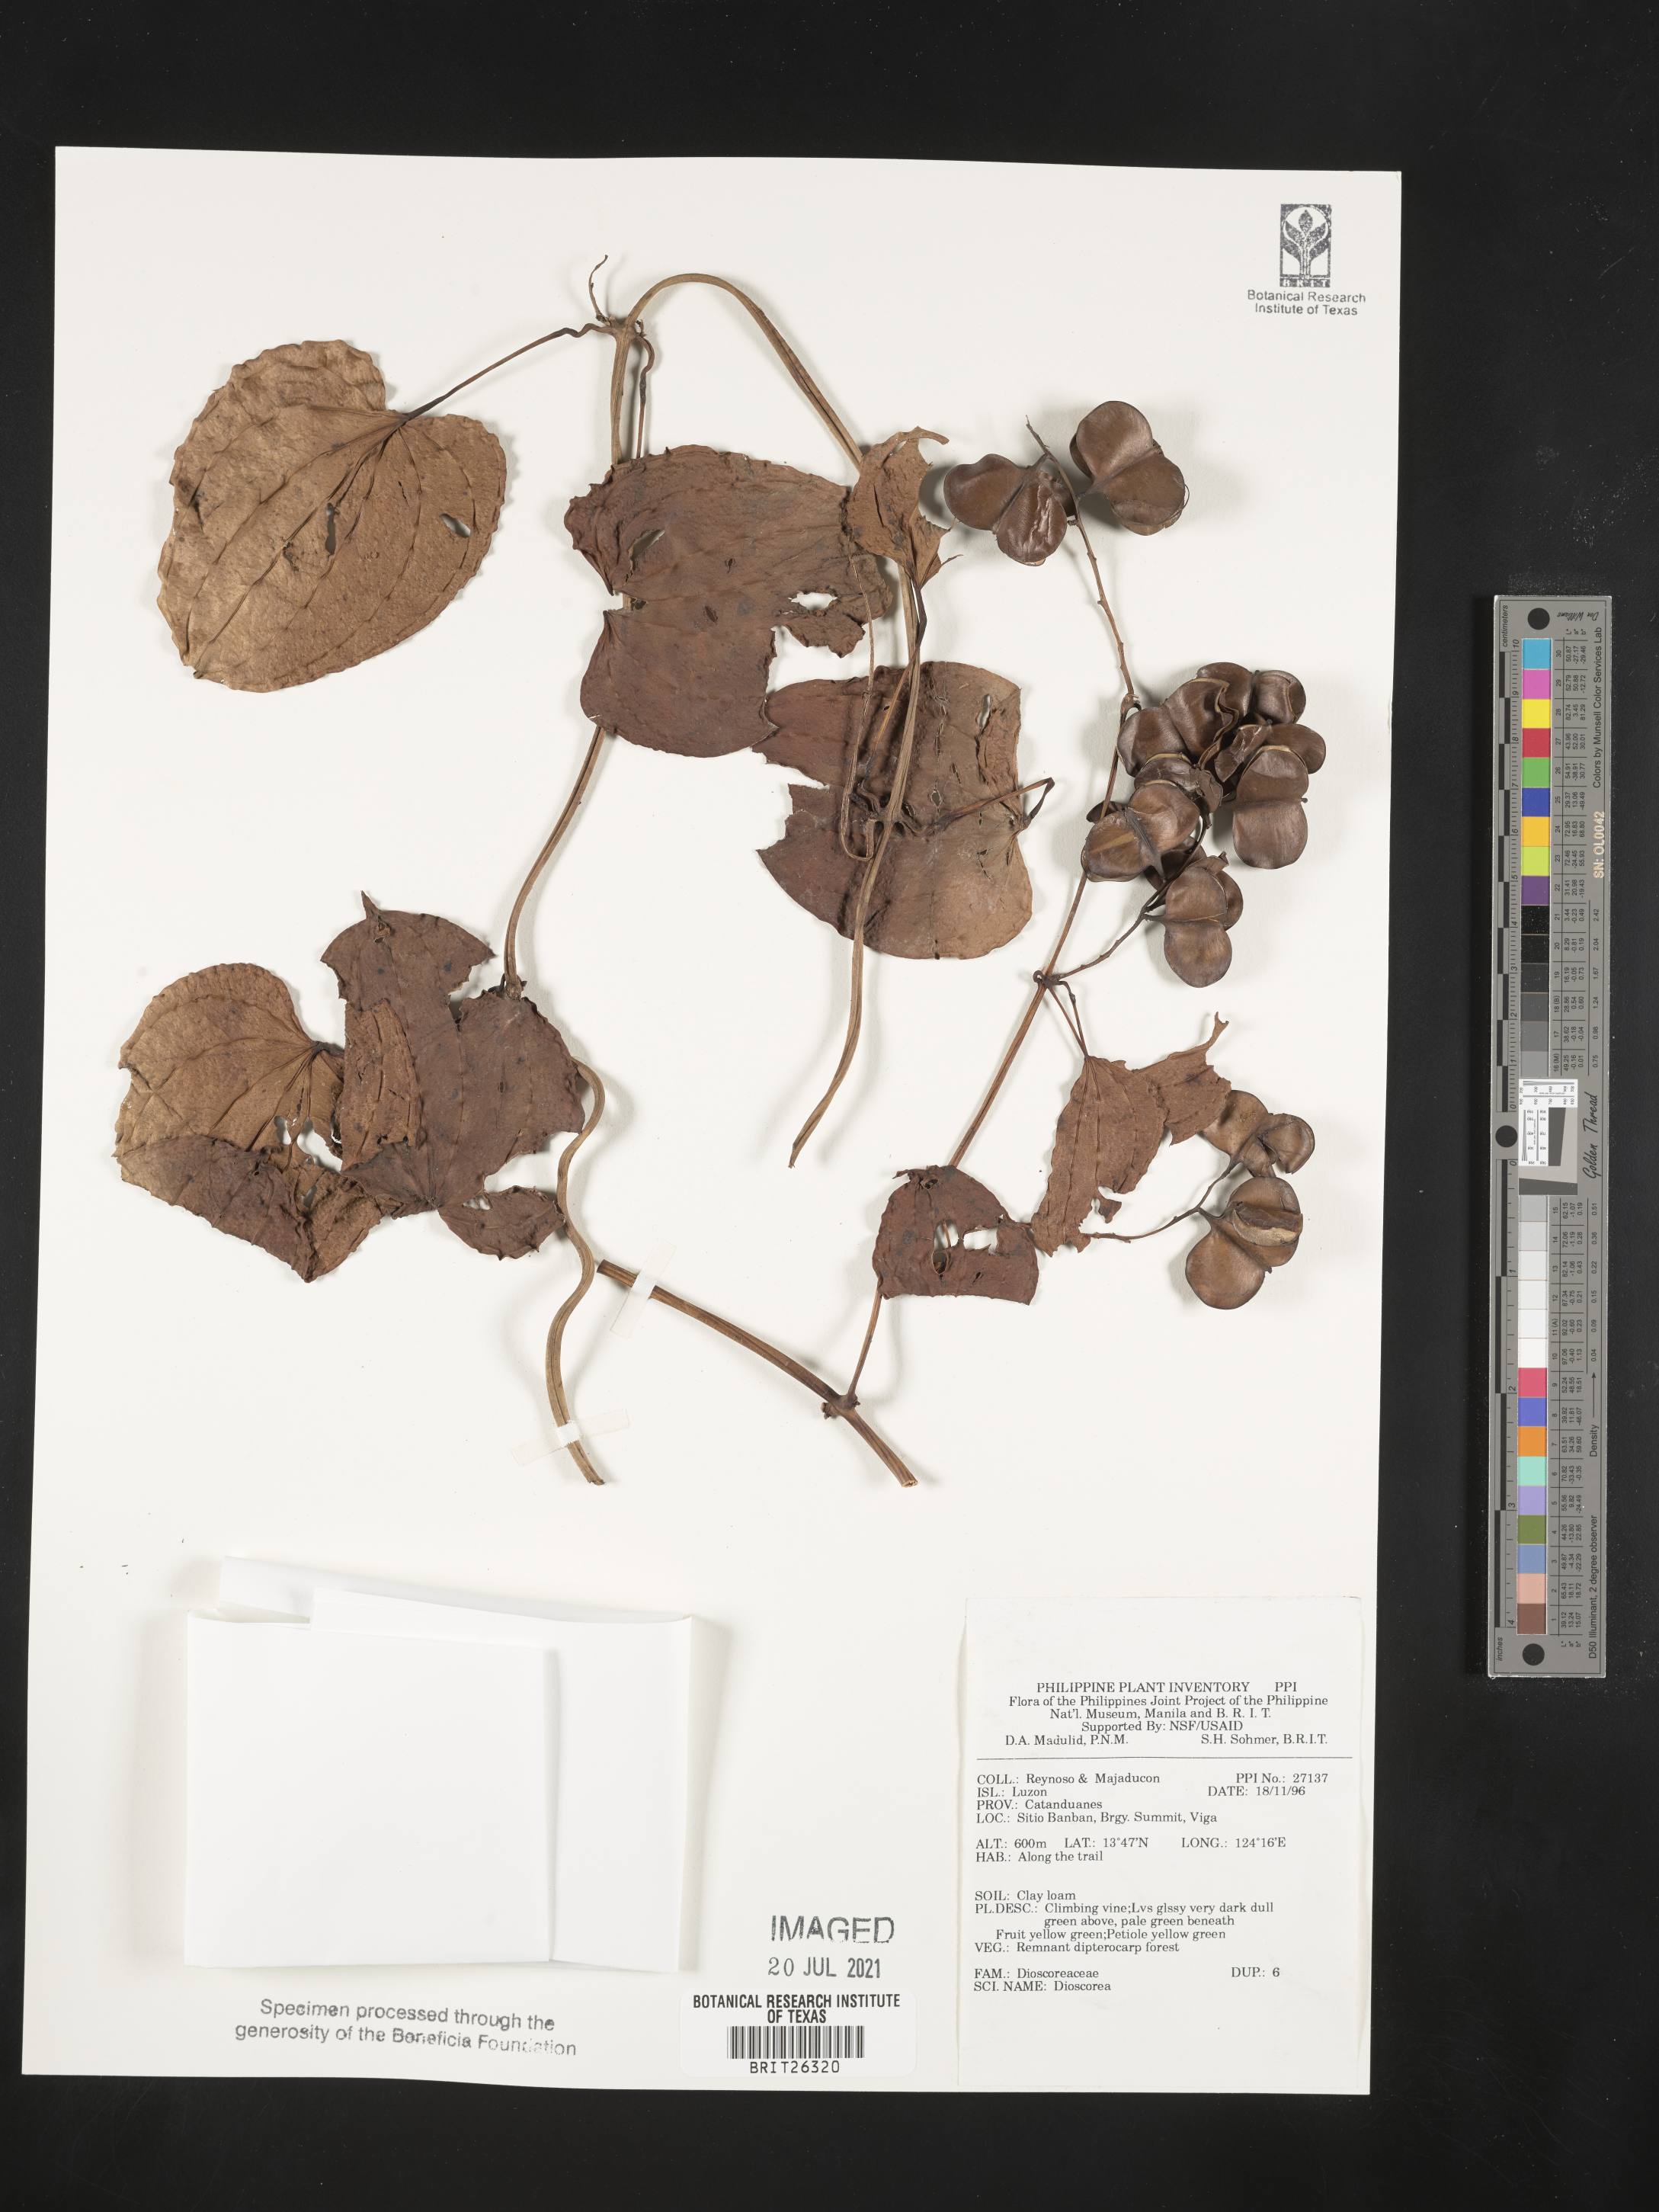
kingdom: Plantae
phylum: Tracheophyta
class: Liliopsida
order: Dioscoreales
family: Dioscoreaceae
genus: Dioscorea
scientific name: Dioscorea
